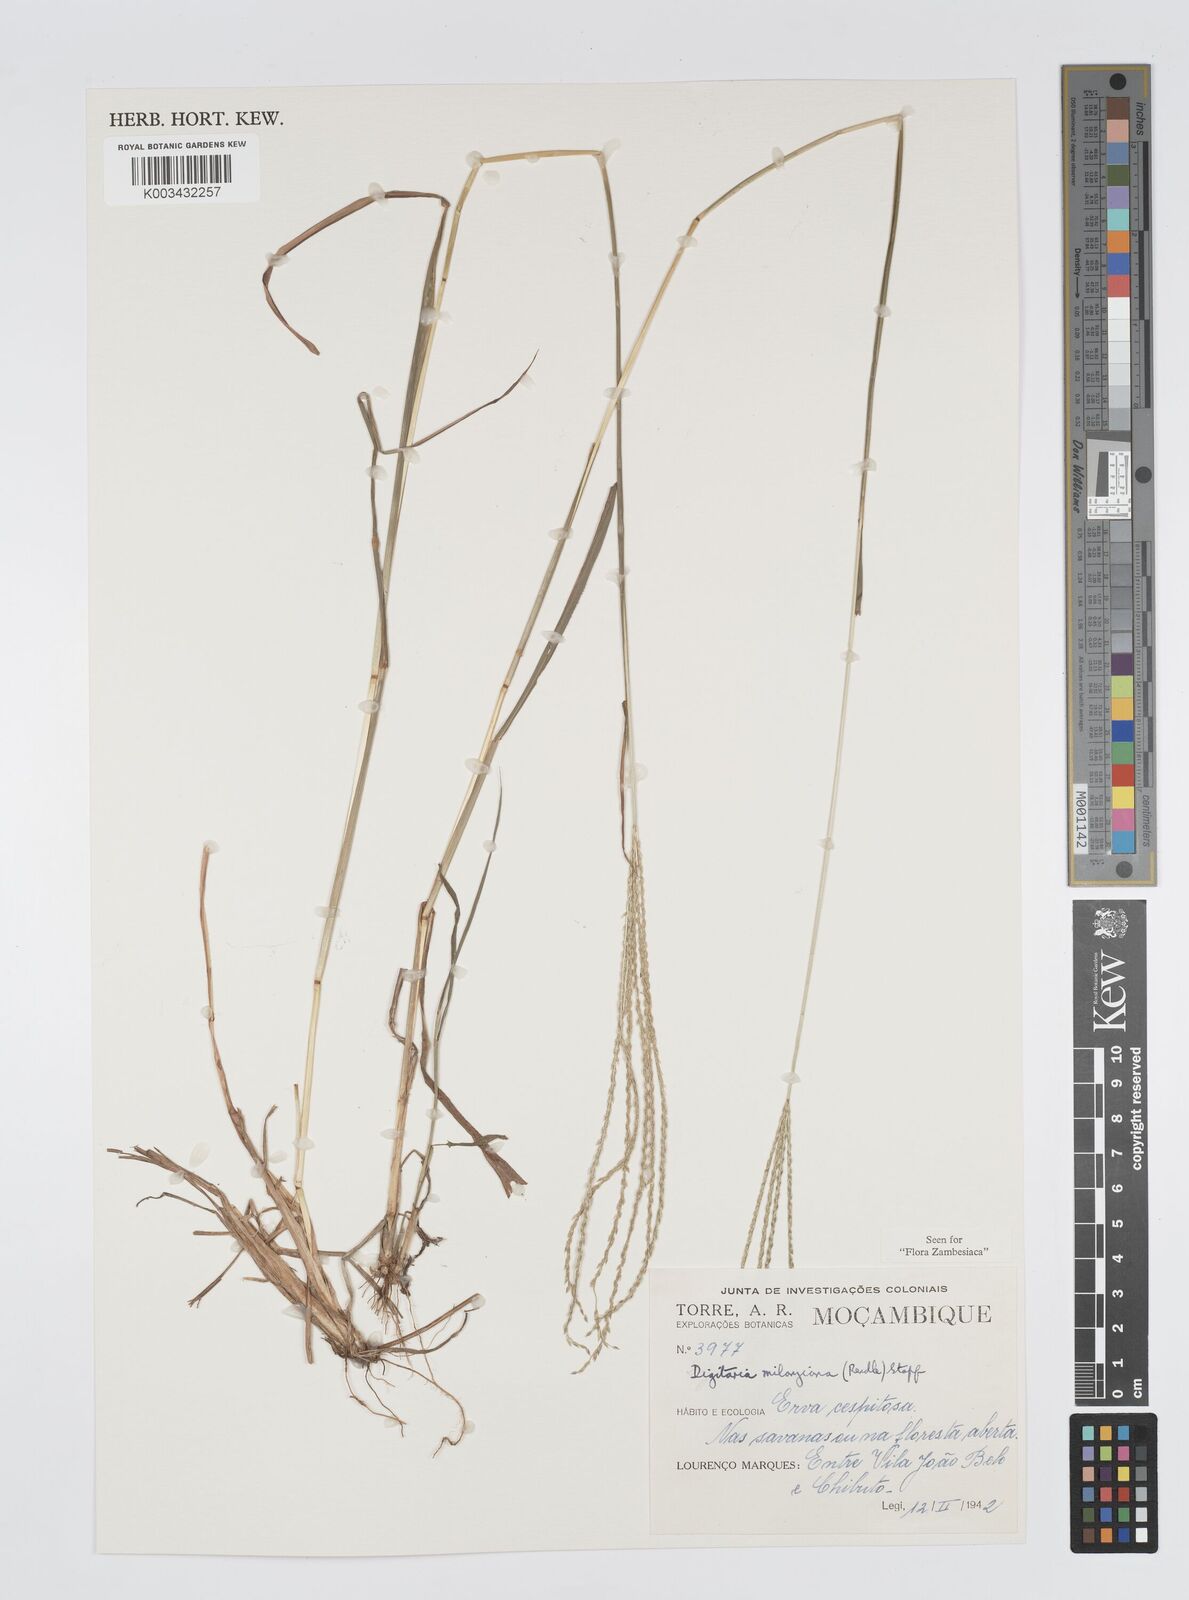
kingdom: Plantae
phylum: Tracheophyta
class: Liliopsida
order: Poales
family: Poaceae
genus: Digitaria
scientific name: Digitaria milanjiana
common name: Madagascar crabgrass
